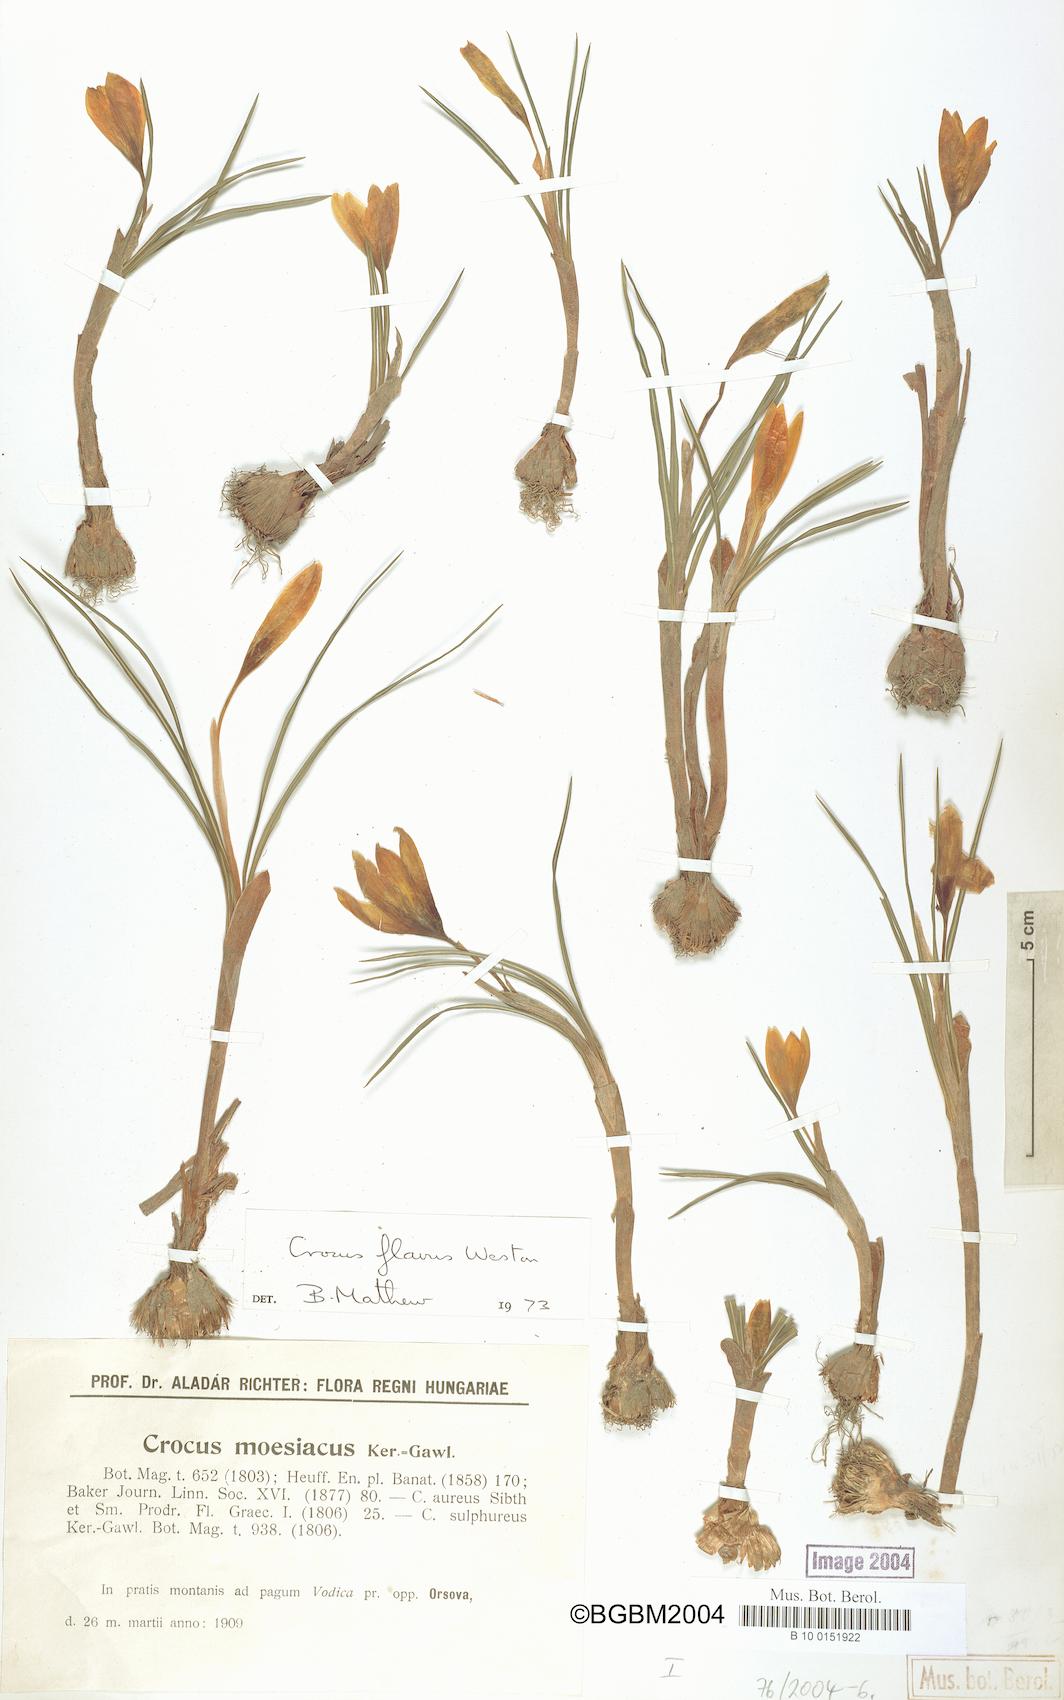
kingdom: Plantae
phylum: Tracheophyta
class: Liliopsida
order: Asparagales
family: Iridaceae
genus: Crocus
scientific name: Crocus flavus
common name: Yellow crocus
